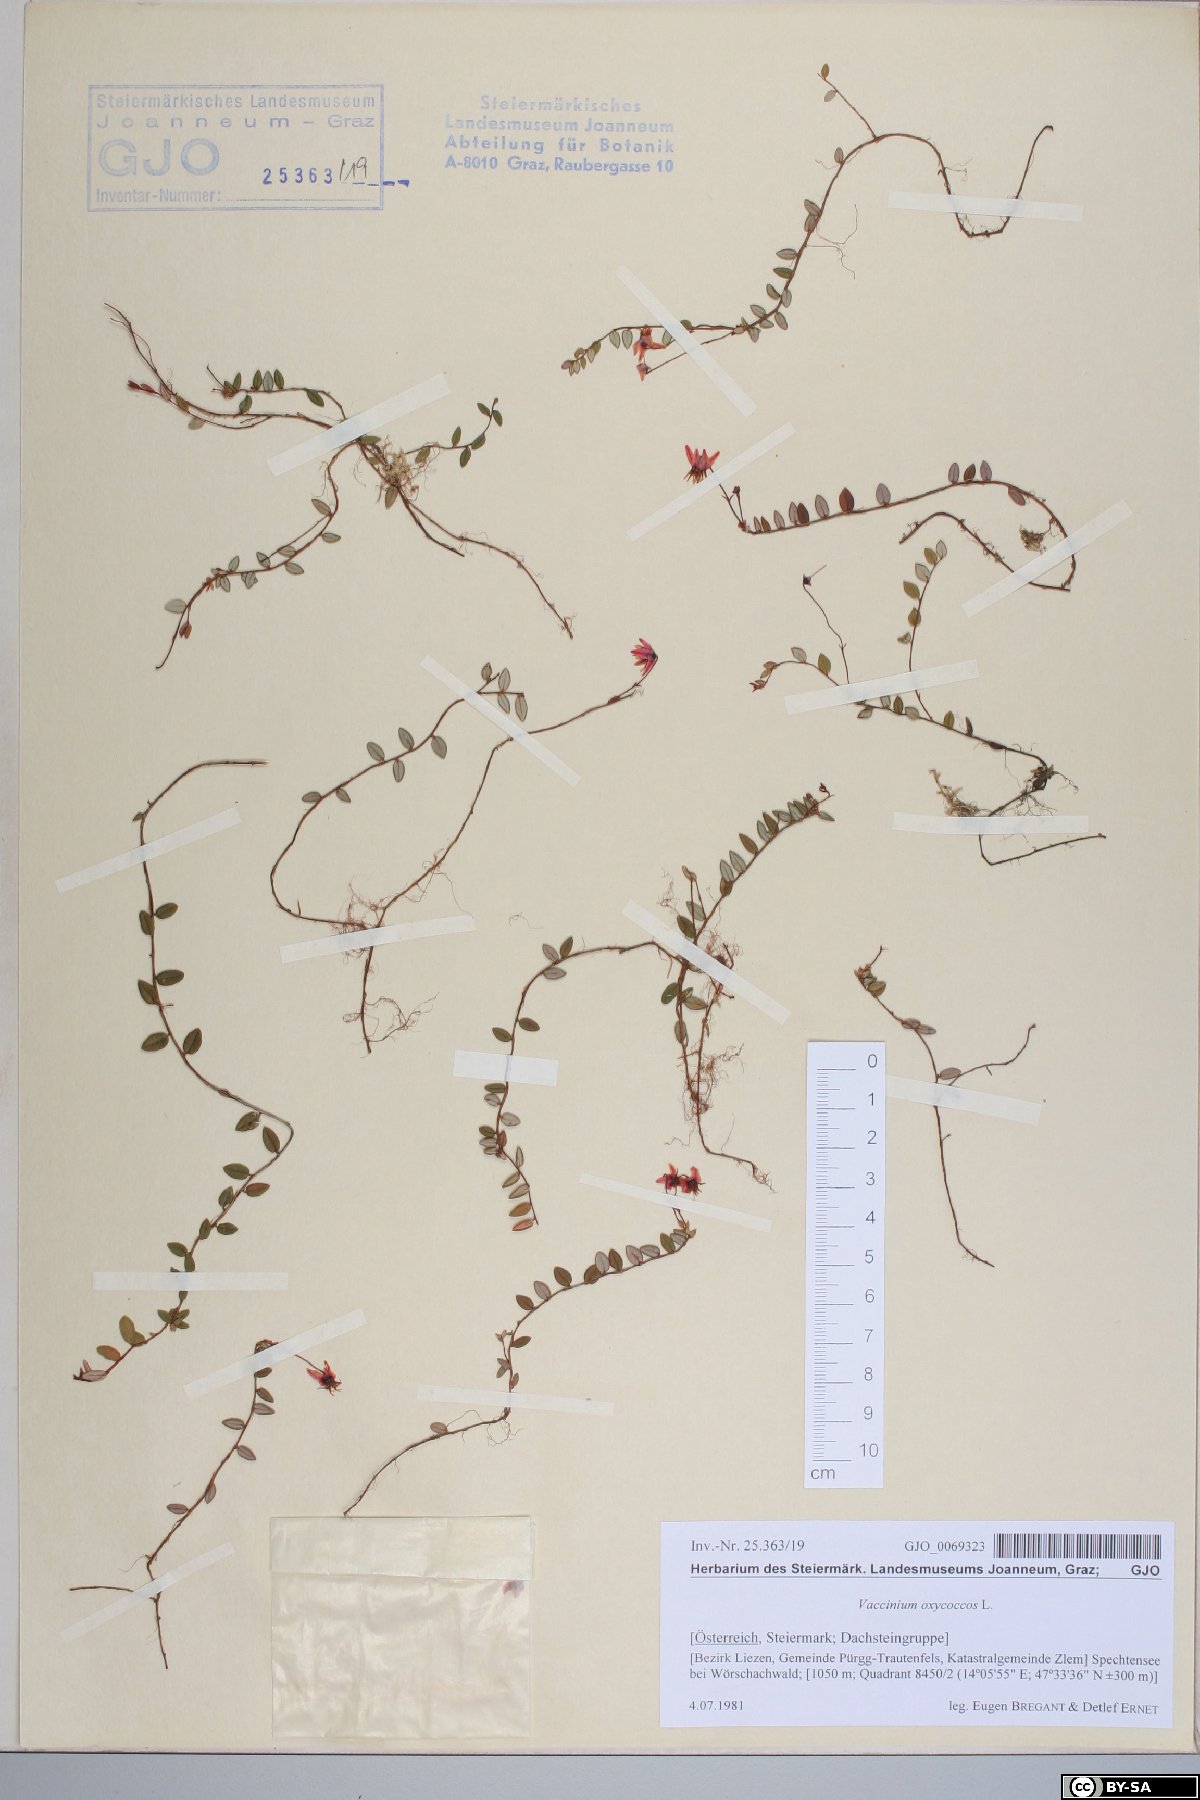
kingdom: Plantae
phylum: Tracheophyta
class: Magnoliopsida
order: Ericales
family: Ericaceae
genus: Vaccinium
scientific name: Vaccinium oxycoccos
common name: Cranberry
